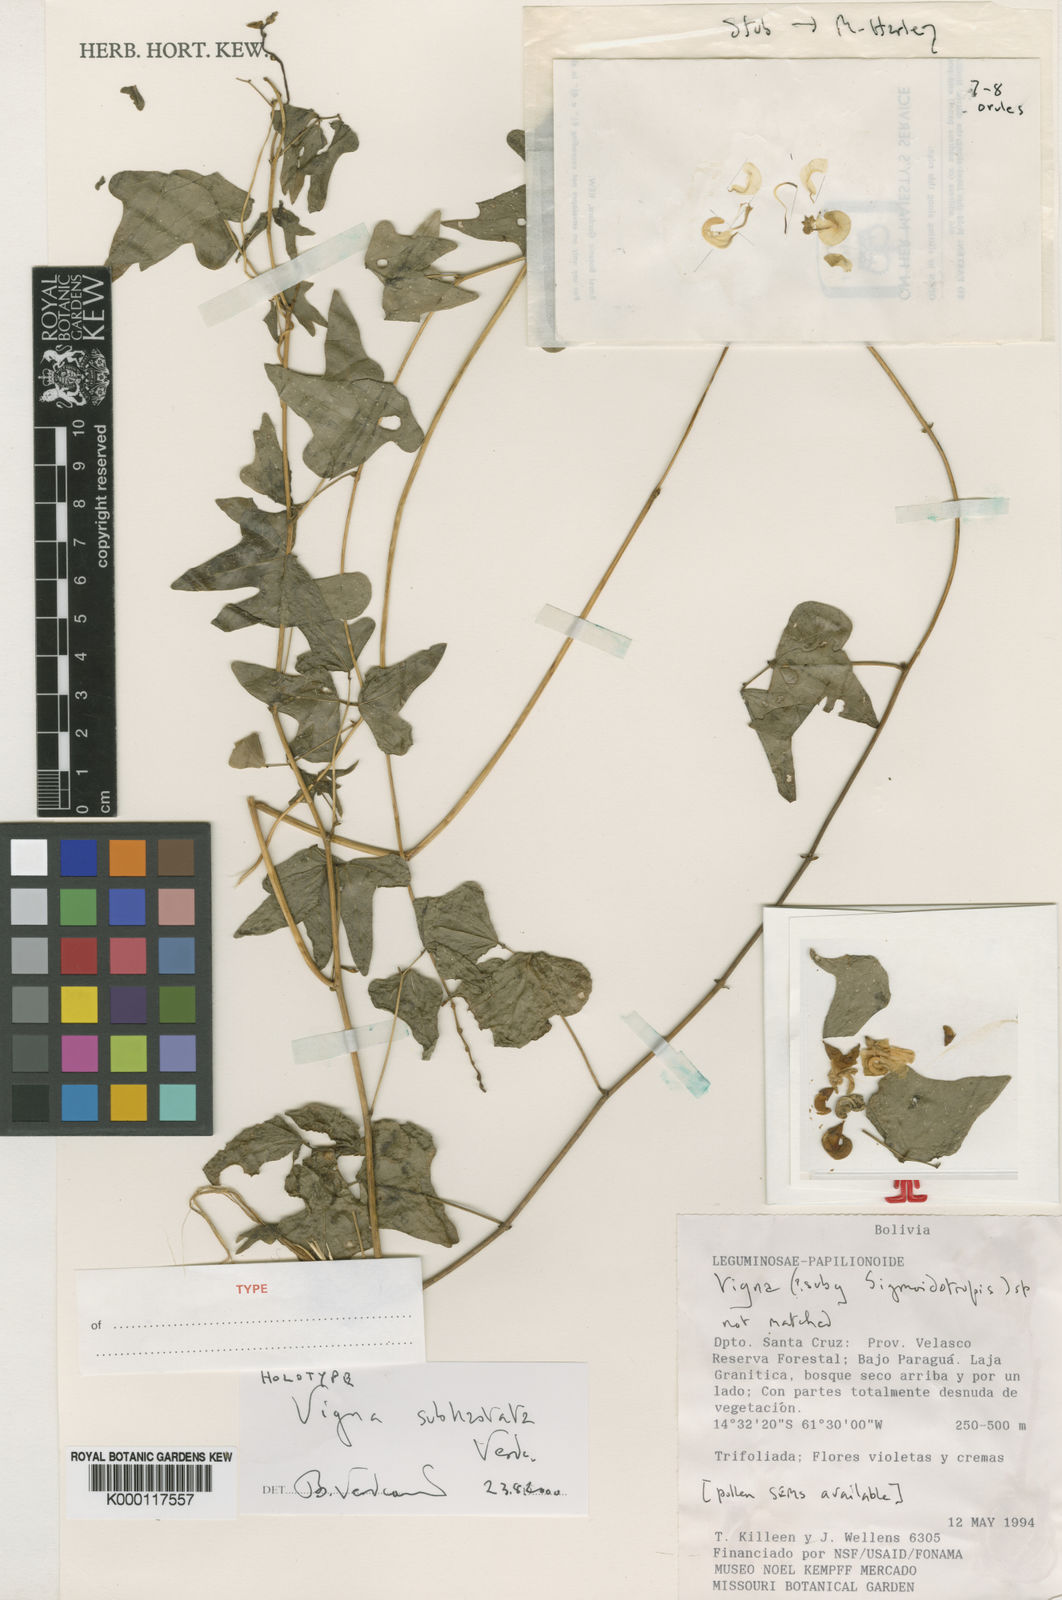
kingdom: Plantae
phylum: Tracheophyta
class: Magnoliopsida
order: Fabales
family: Fabaceae
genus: Ancistrotropis
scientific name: Ancistrotropis subhastata
